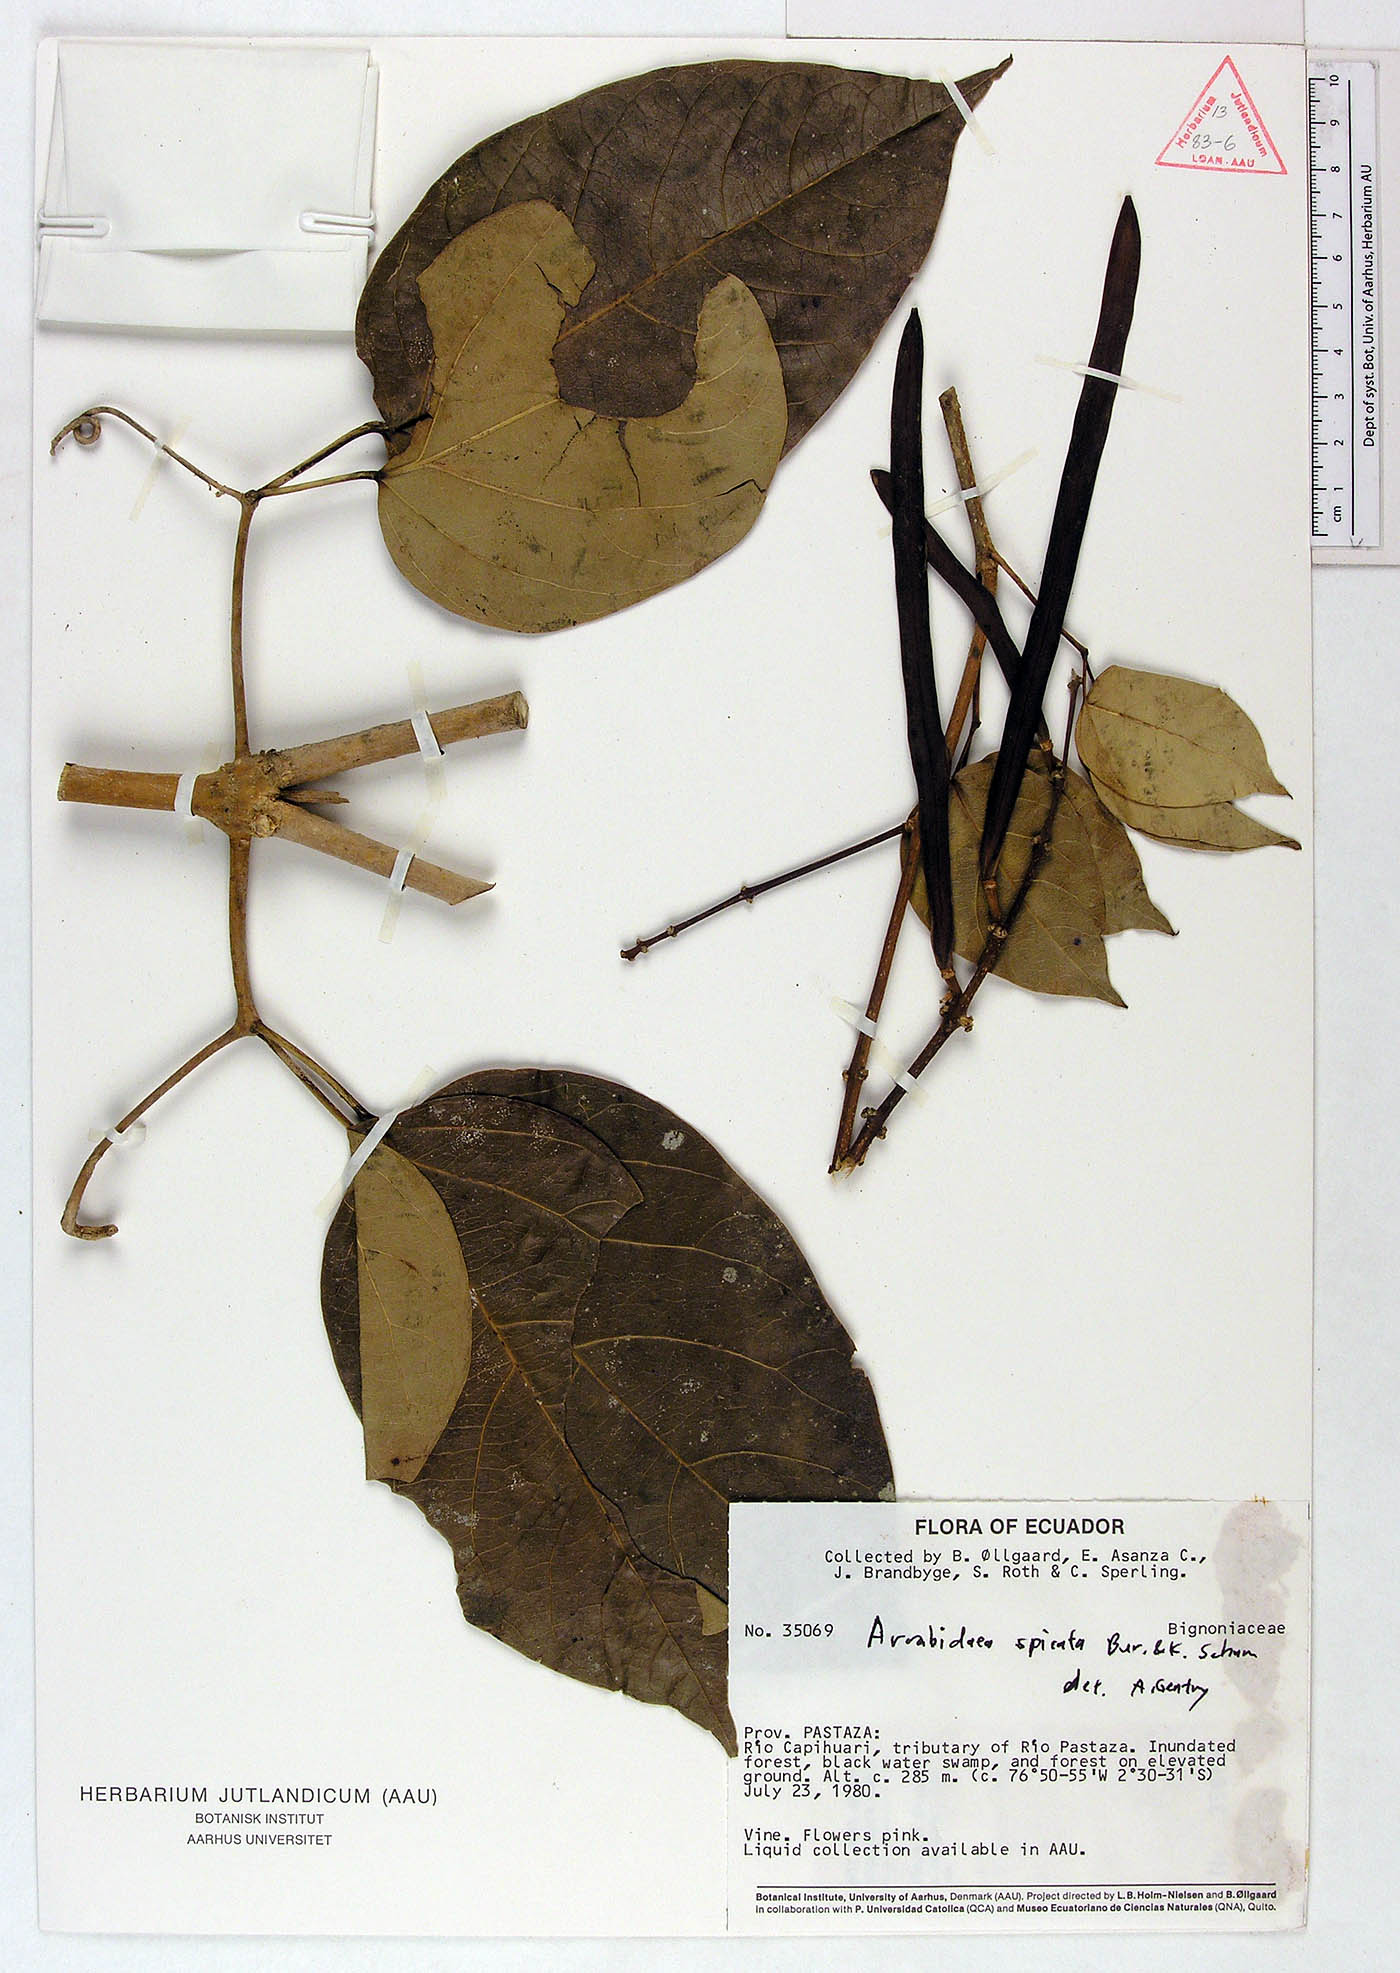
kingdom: Plantae
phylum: Tracheophyta
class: Magnoliopsida
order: Lamiales
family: Bignoniaceae
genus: Fridericia
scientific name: Fridericia spicata
